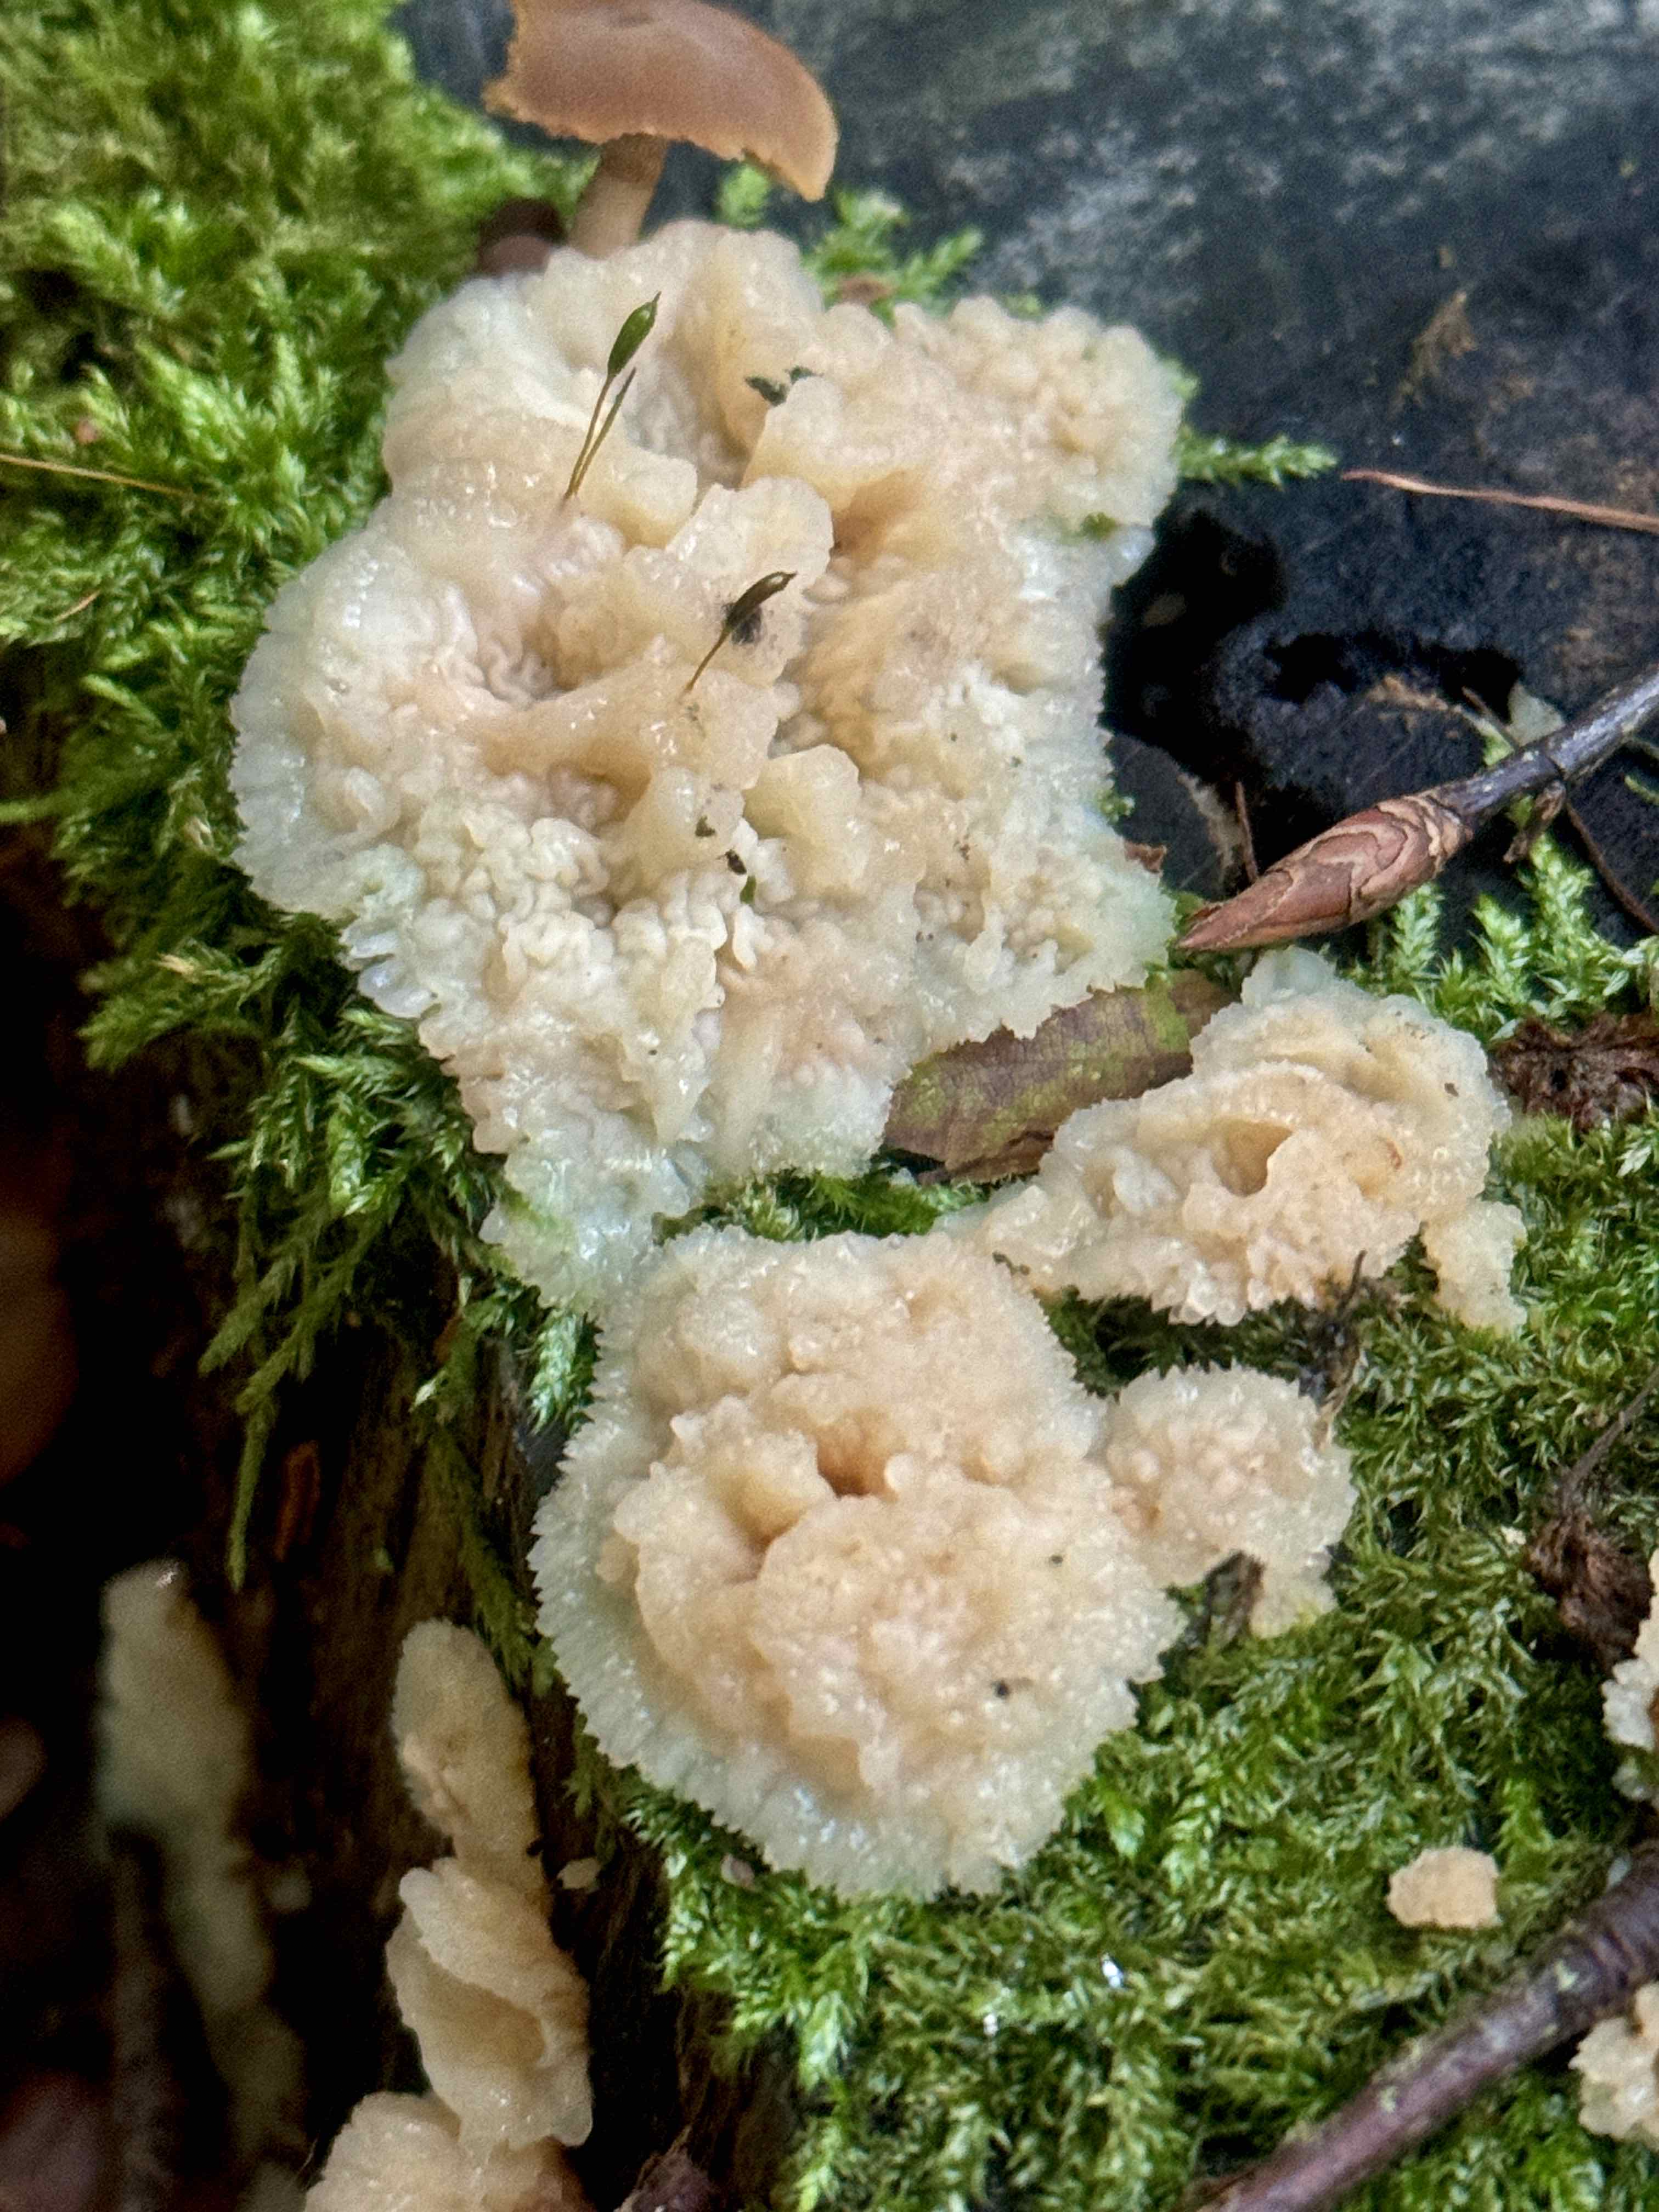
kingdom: Fungi
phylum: Basidiomycota
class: Agaricomycetes
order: Polyporales
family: Meruliaceae
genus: Phlebia
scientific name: Phlebia tremellosa
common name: bævrende åresvamp
